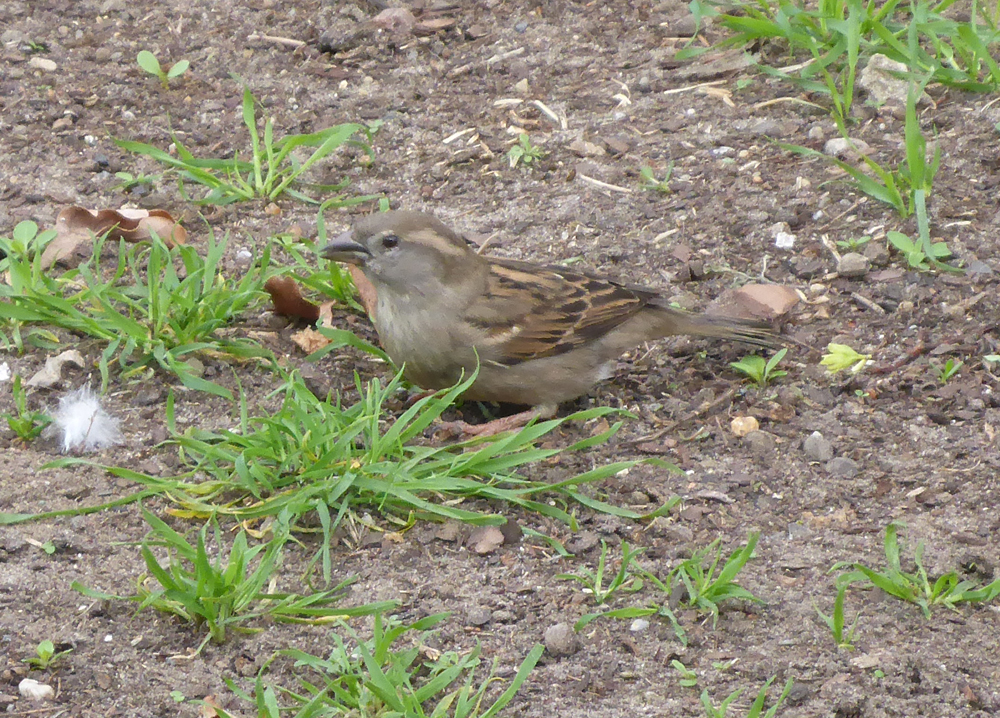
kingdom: Animalia
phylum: Chordata
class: Aves
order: Passeriformes
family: Passeridae
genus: Passer
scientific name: Passer domesticus
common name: House sparrow
